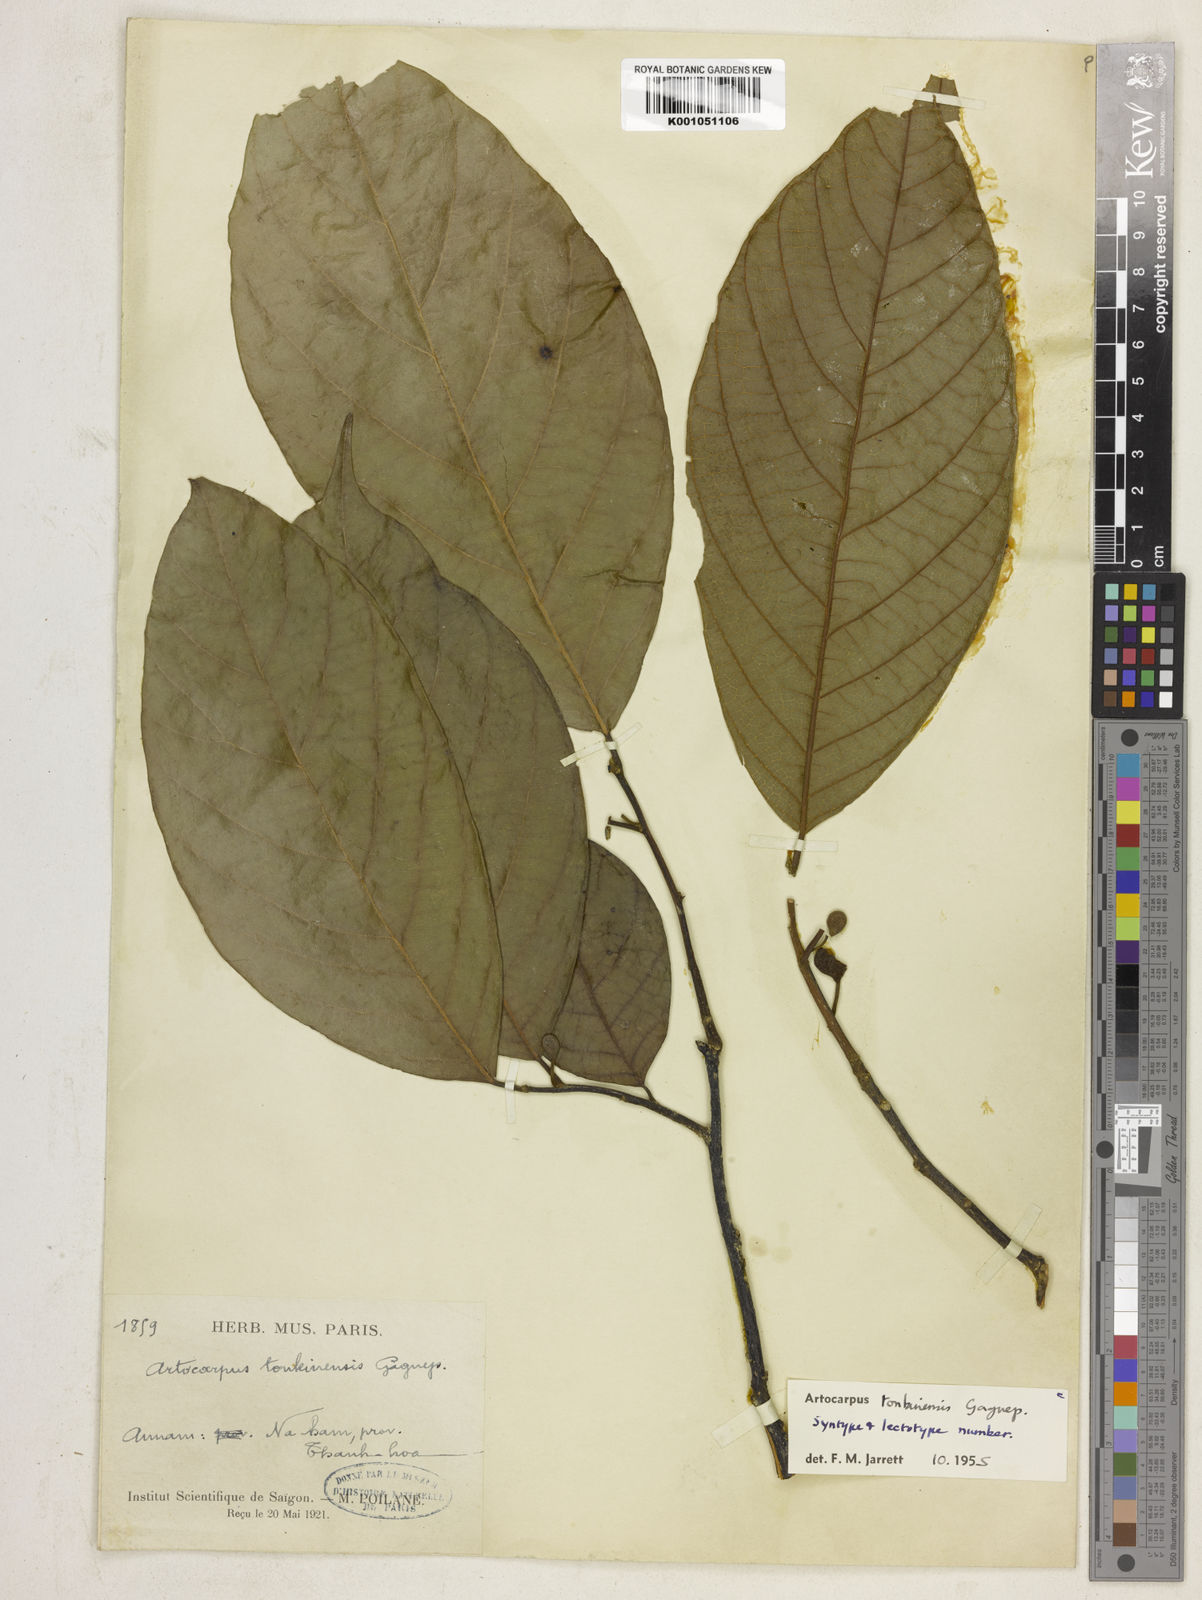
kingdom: Plantae
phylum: Tracheophyta
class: Magnoliopsida
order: Rosales
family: Moraceae
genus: Artocarpus
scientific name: Artocarpus
